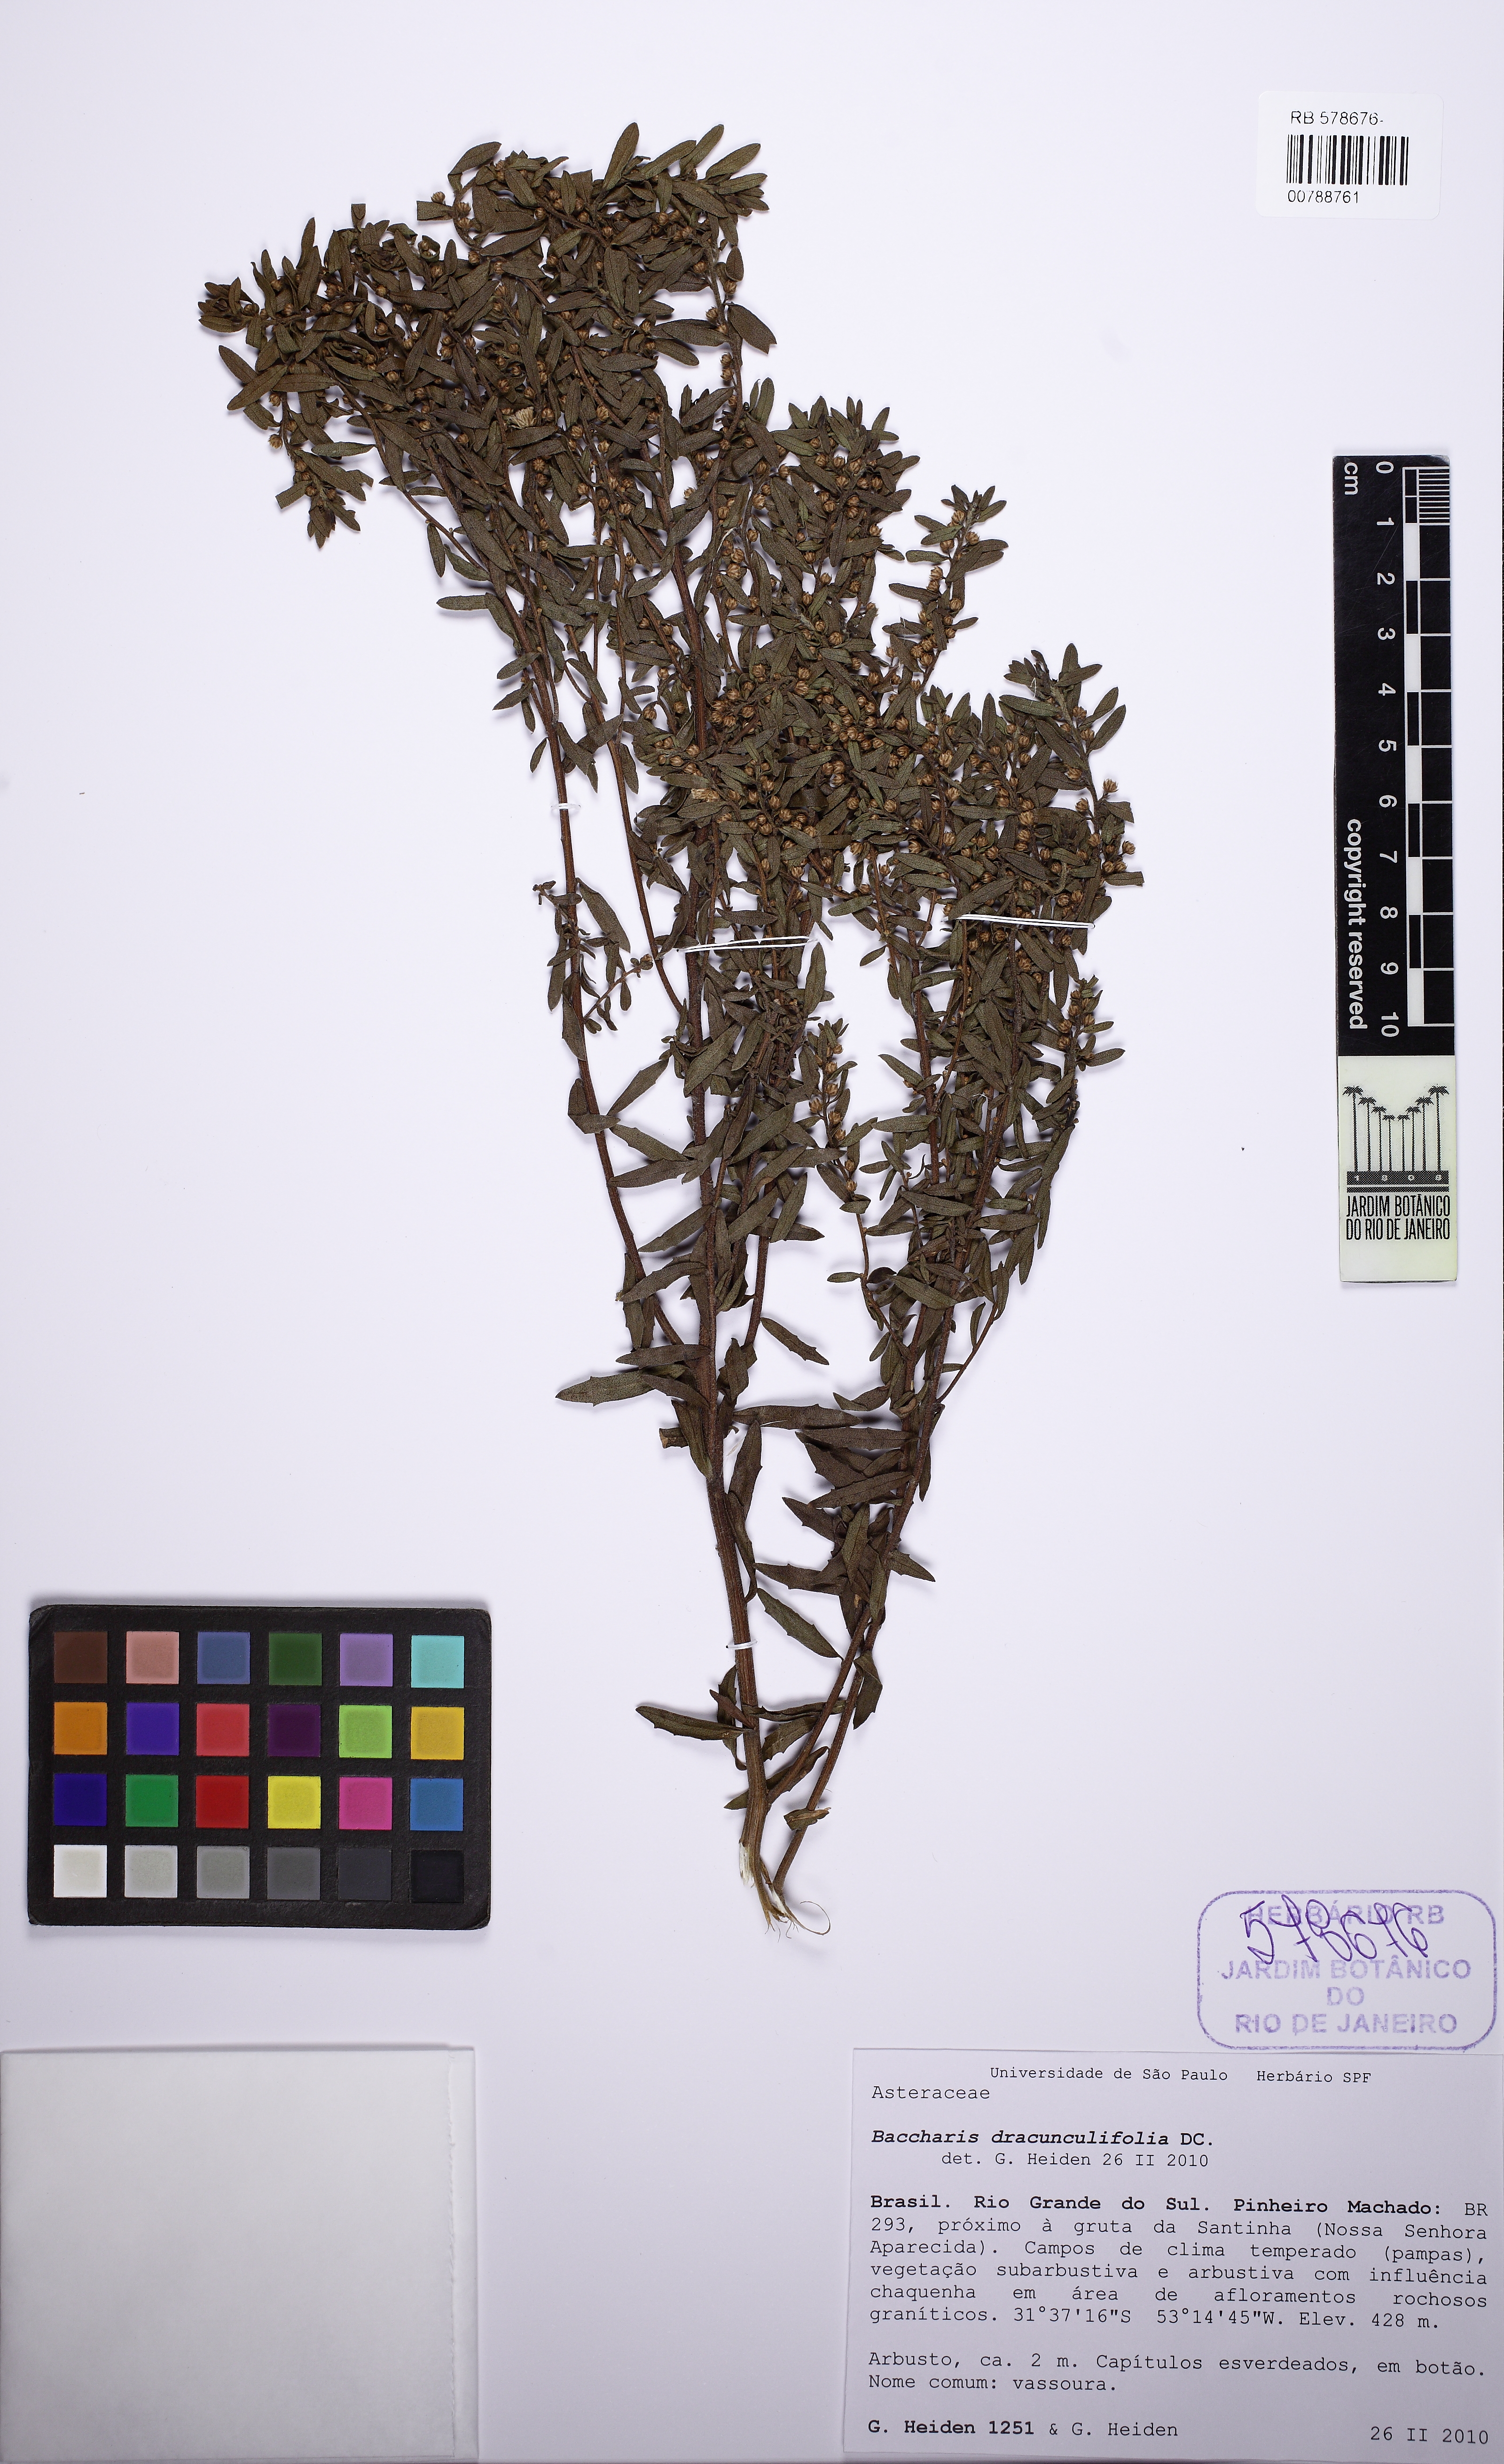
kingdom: Plantae
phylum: Tracheophyta
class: Magnoliopsida
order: Asterales
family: Asteraceae
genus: Baccharis
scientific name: Baccharis dracunculifolia
